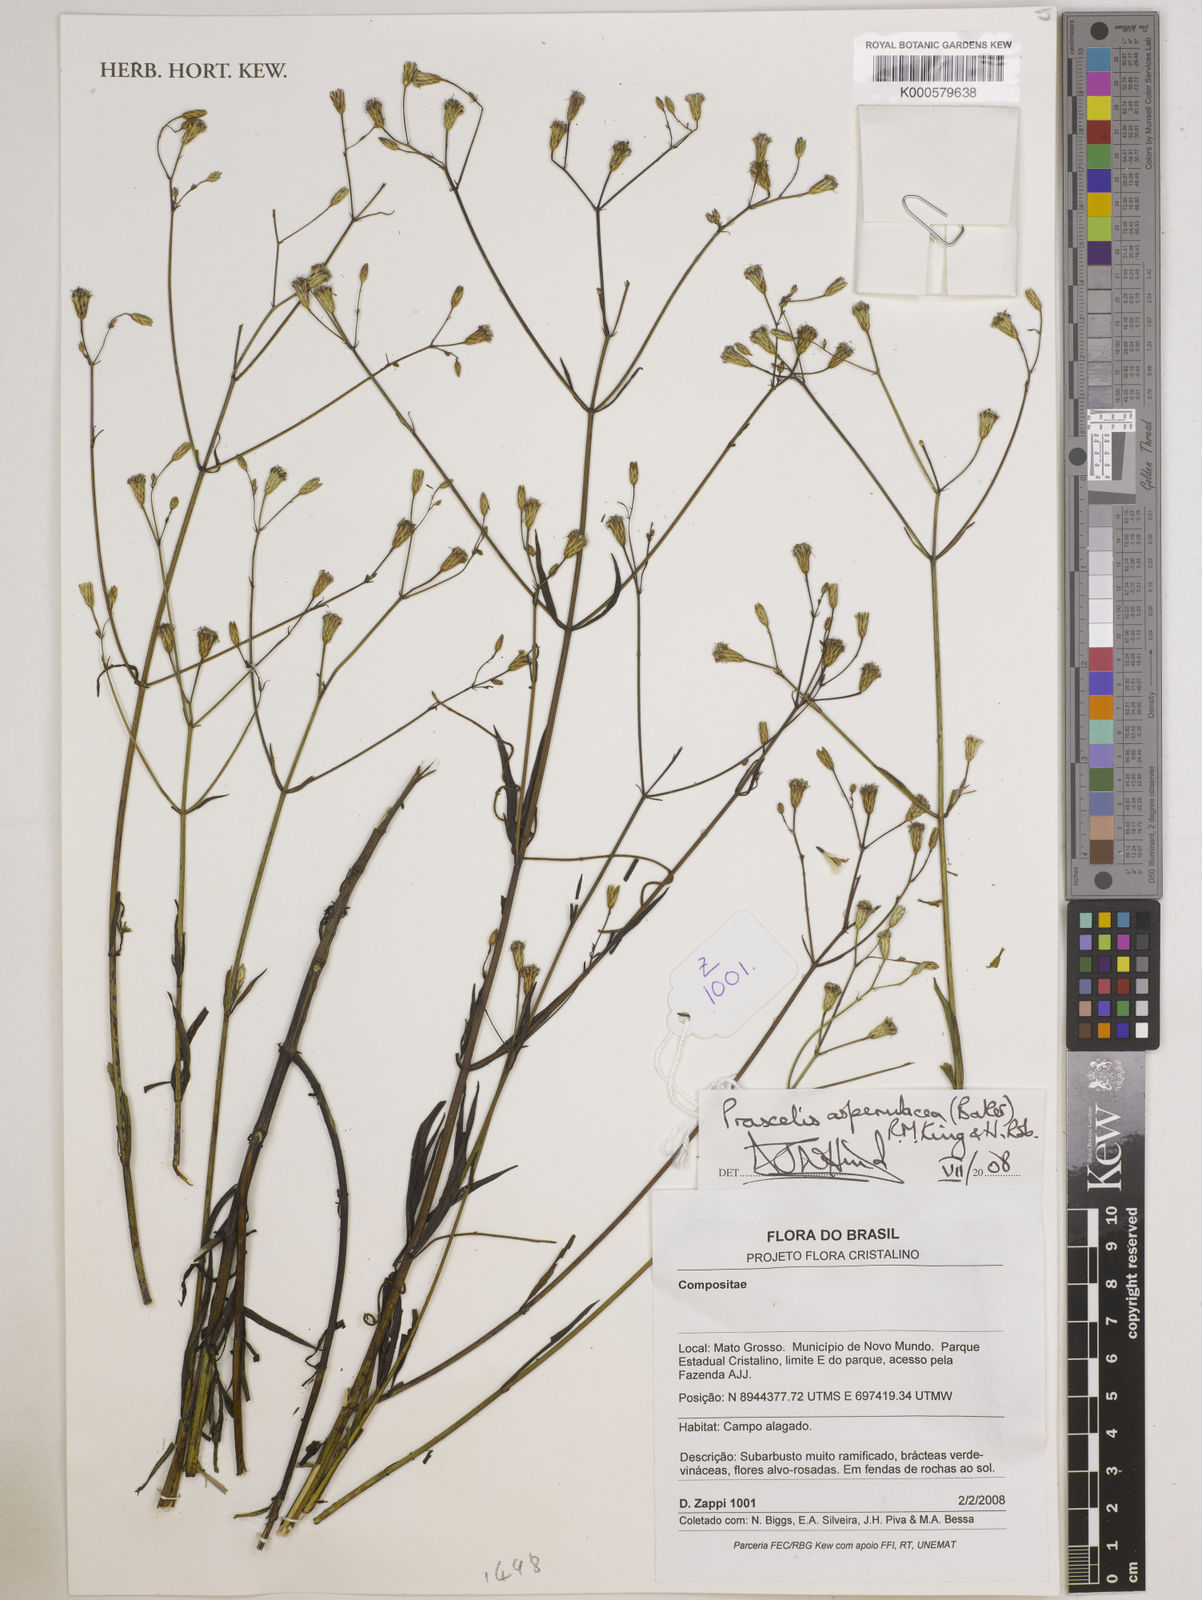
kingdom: Plantae
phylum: Tracheophyta
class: Magnoliopsida
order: Asterales
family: Asteraceae
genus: Praxelis
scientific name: Praxelis asperulacea
